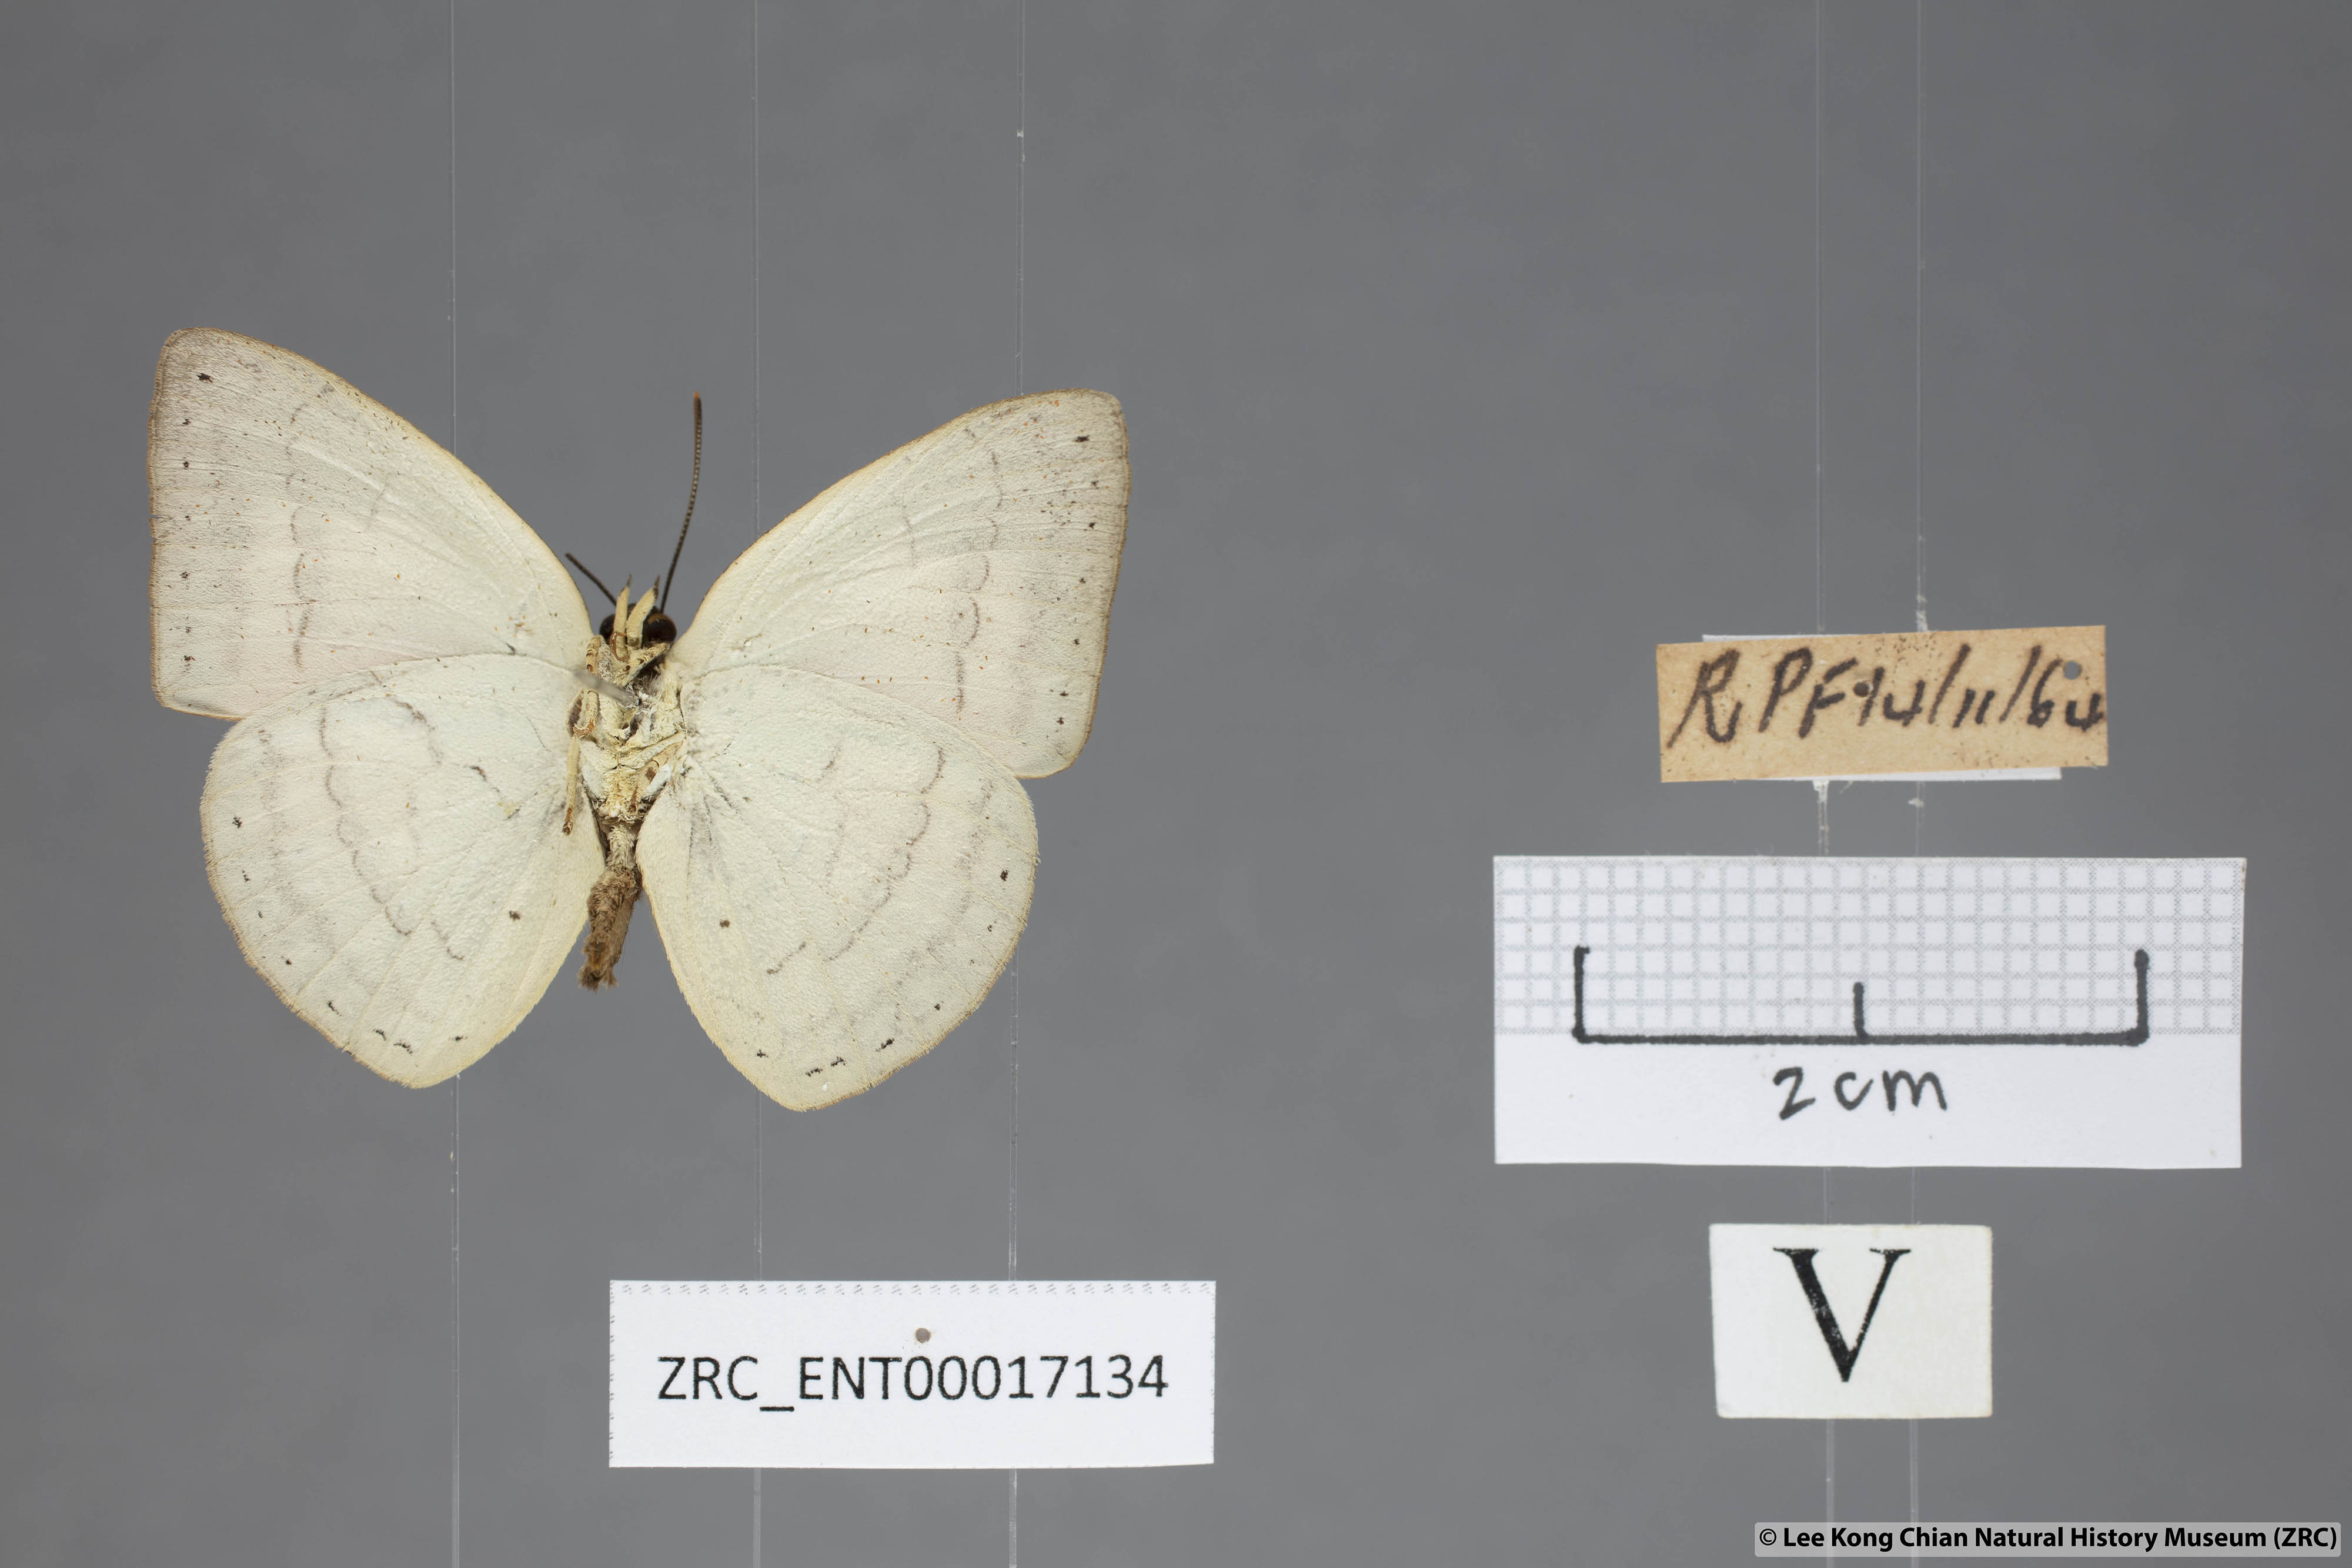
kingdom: Animalia
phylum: Arthropoda
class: Insecta
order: Lepidoptera
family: Lycaenidae
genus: Curetis
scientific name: Curetis insularis
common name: Narrow-banded sunbeam
